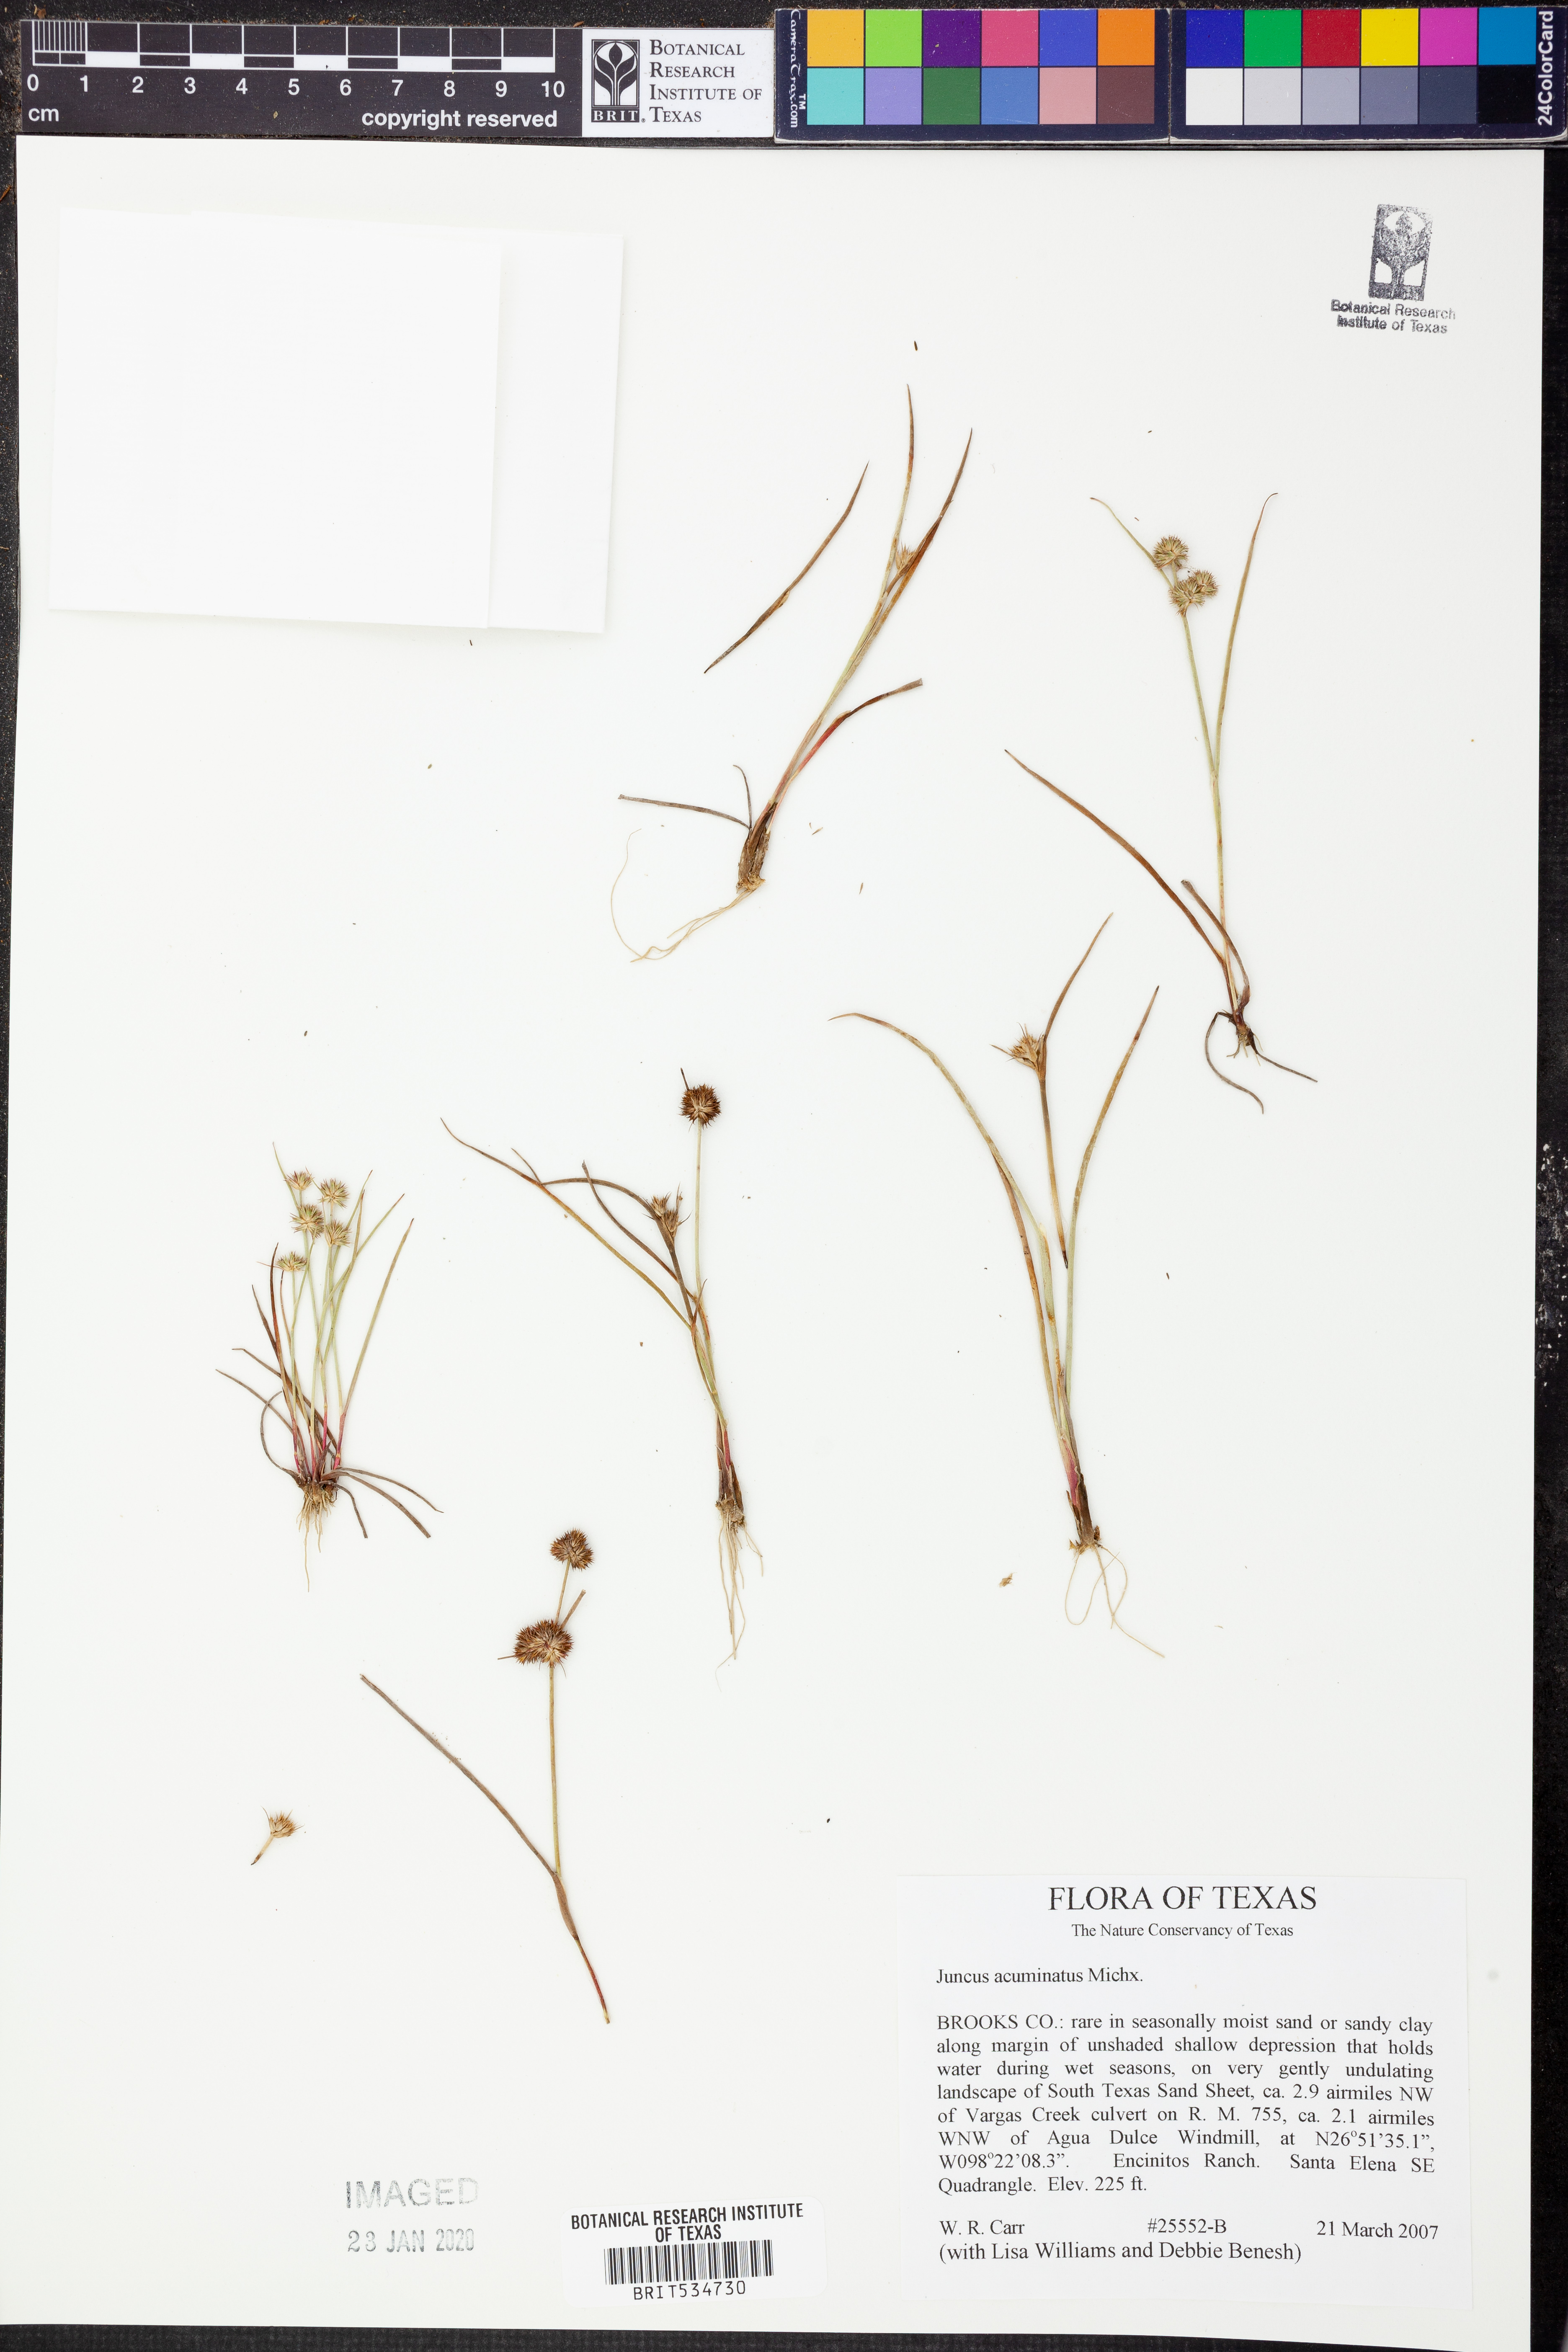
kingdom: Plantae
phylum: Tracheophyta
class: Liliopsida
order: Poales
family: Juncaceae
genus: Juncus
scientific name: Juncus acuminatus
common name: Knotty-leaved rush
